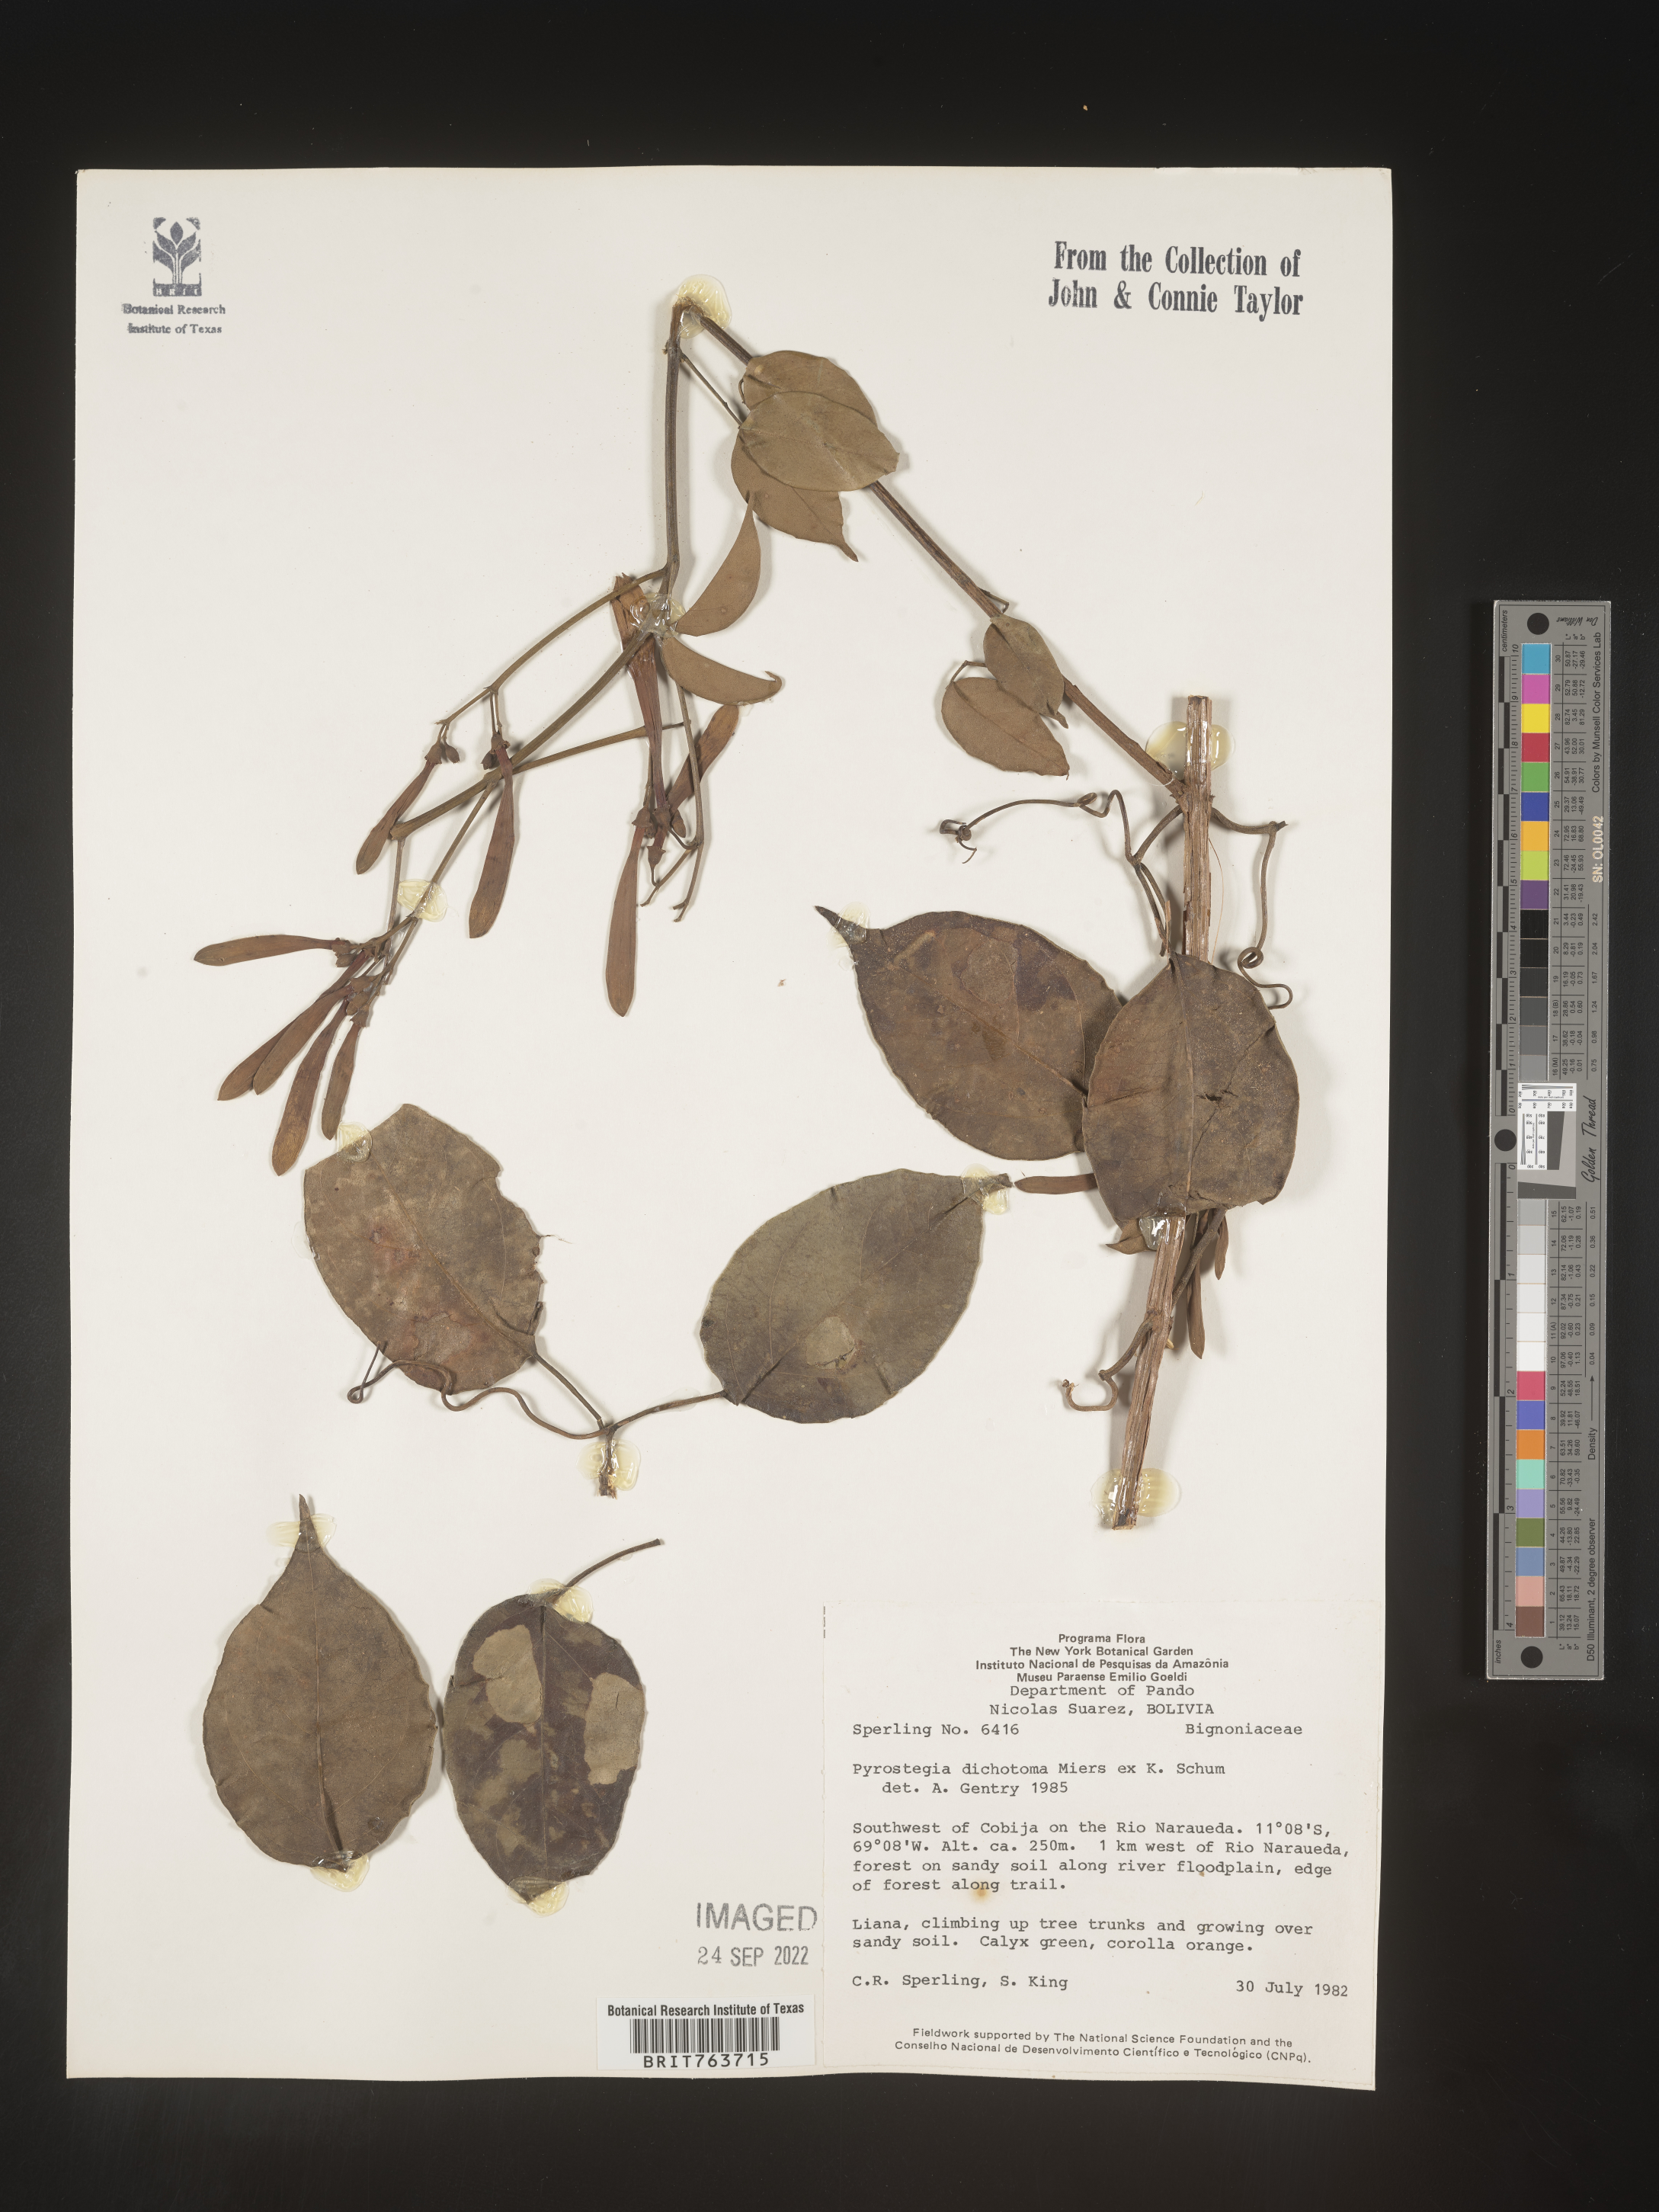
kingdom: Plantae
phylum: Tracheophyta
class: Magnoliopsida
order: Lamiales
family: Bignoniaceae
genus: Pyrostegia
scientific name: Pyrostegia
